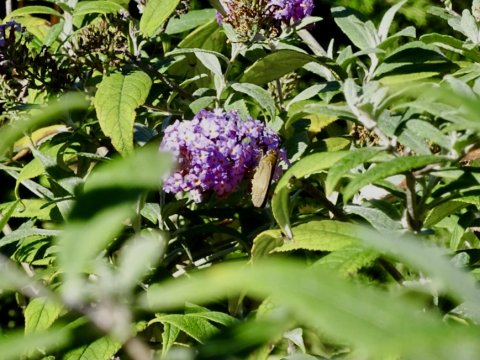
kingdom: Animalia
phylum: Arthropoda
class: Insecta
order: Lepidoptera
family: Hesperiidae
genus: Panoquina
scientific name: Panoquina ocola
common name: Ocola Skipper
